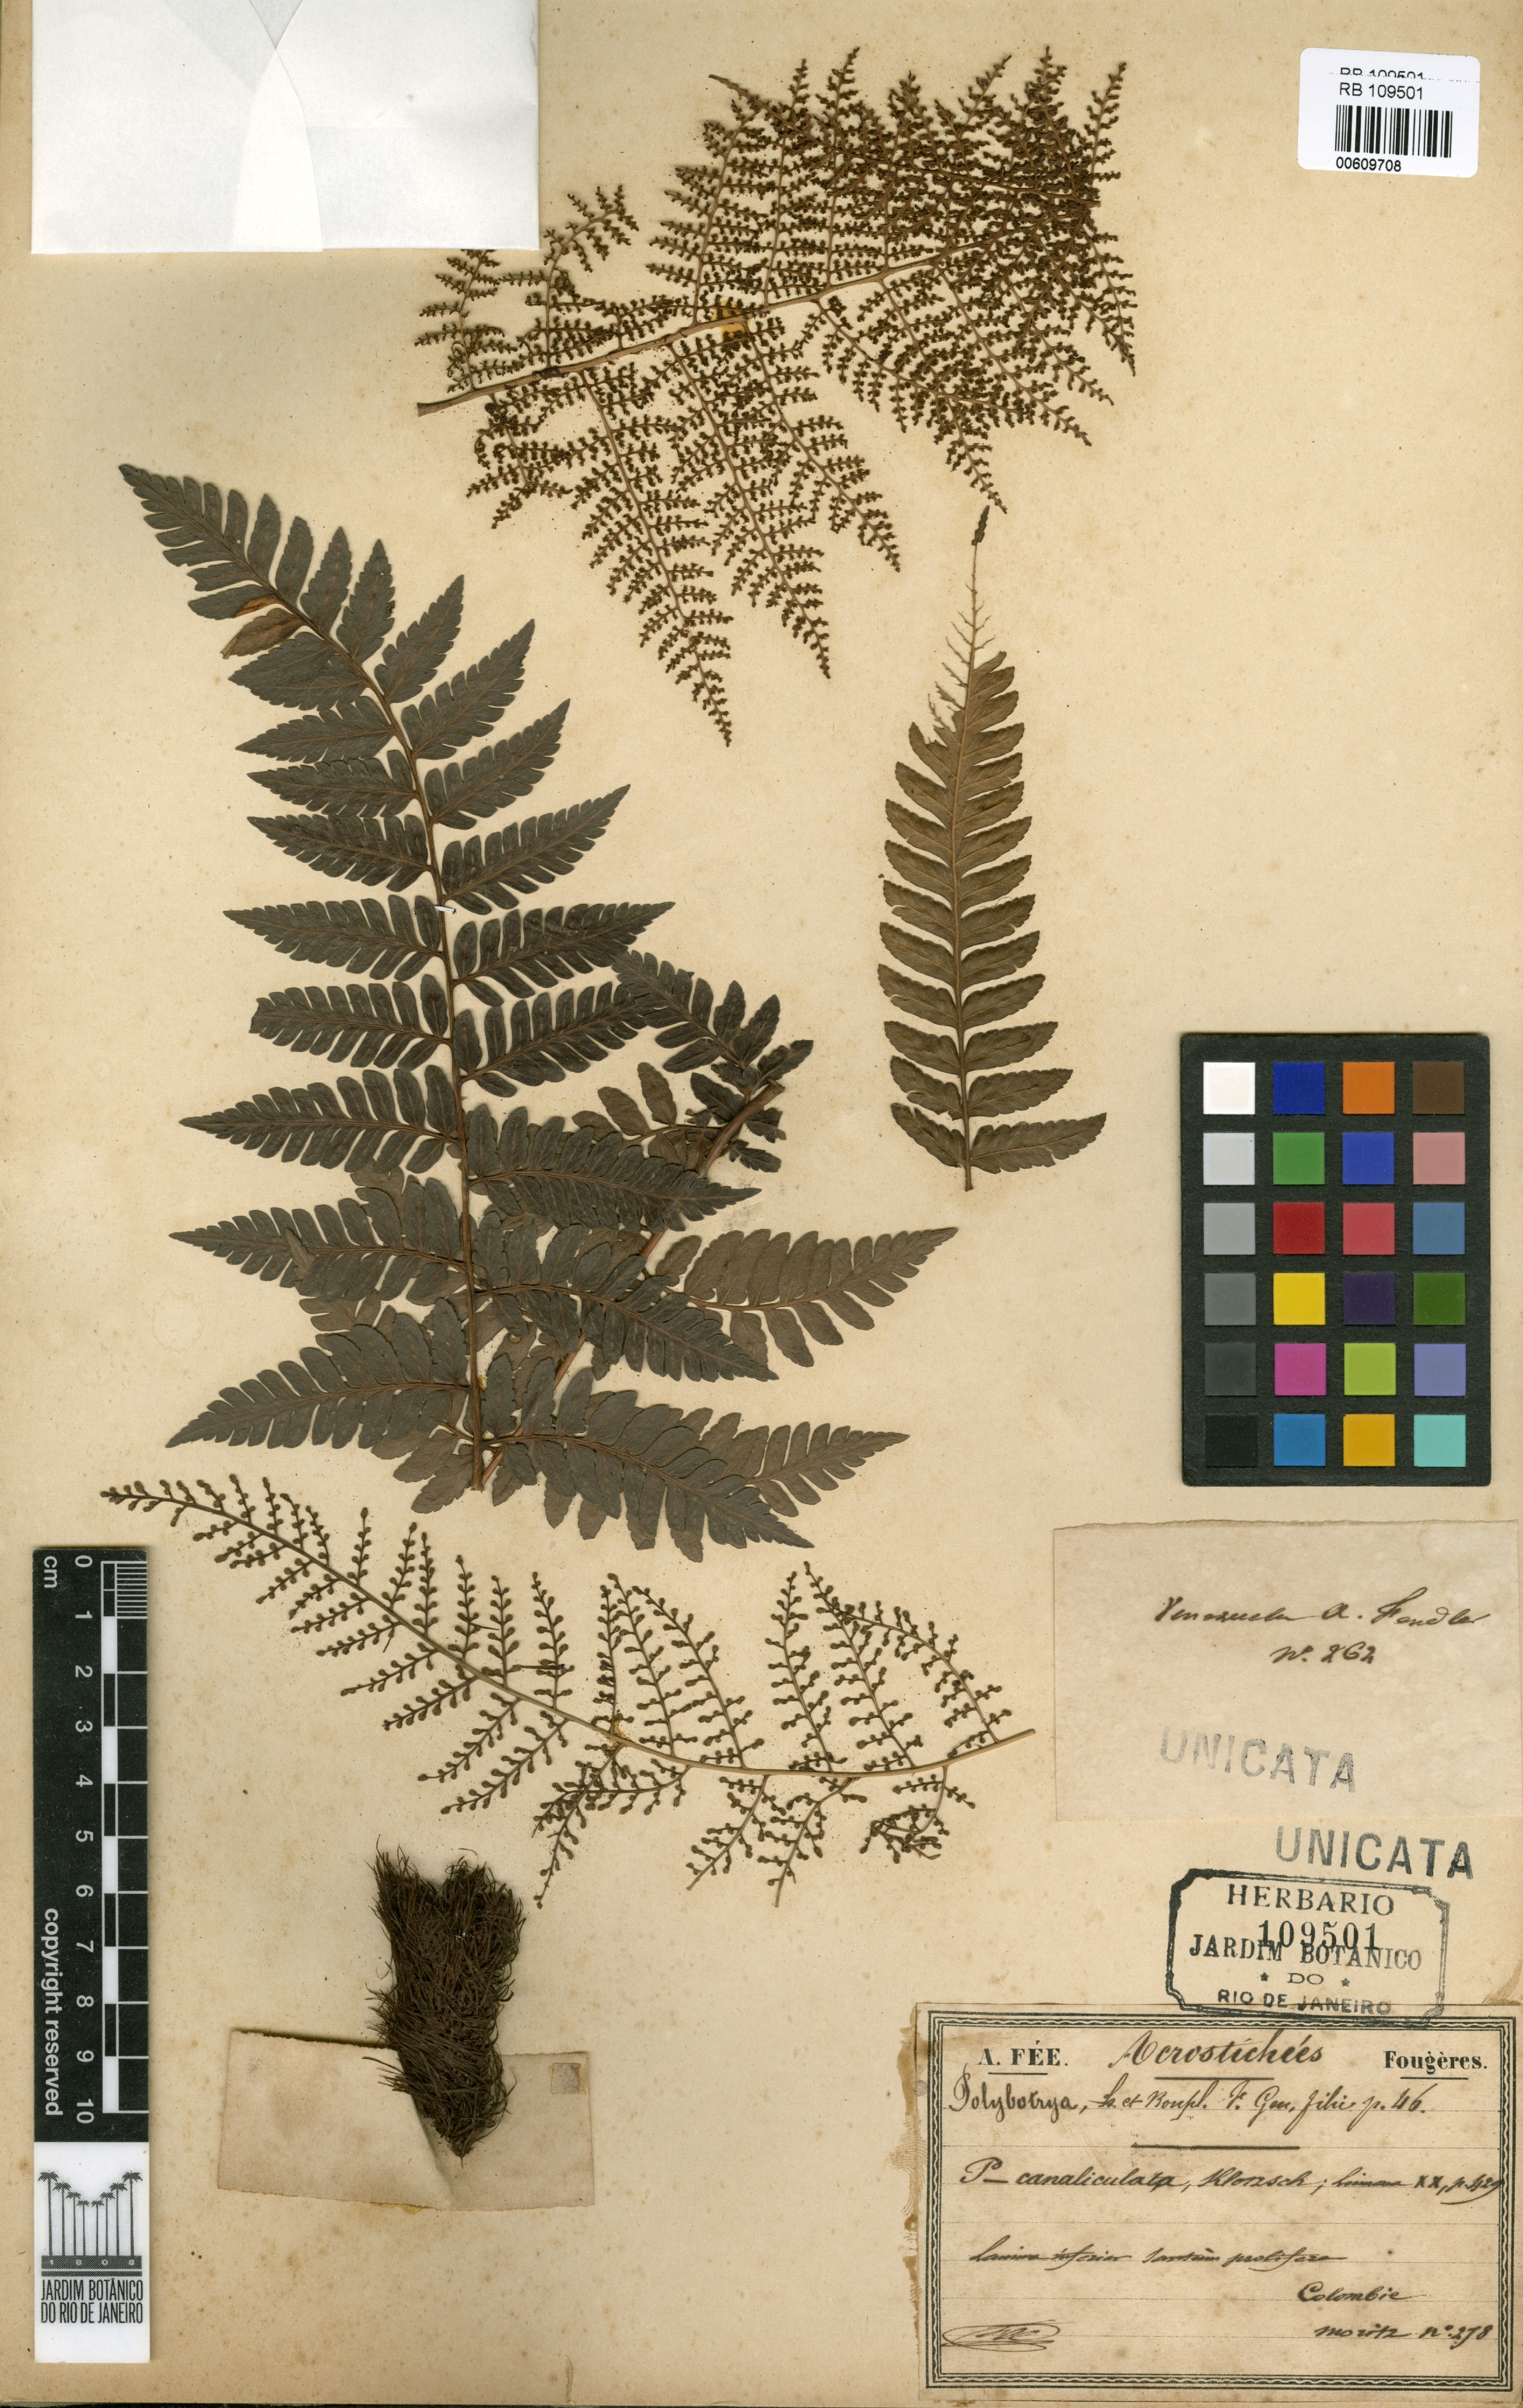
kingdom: Plantae
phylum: Tracheophyta
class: Polypodiopsida
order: Polypodiales
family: Dryopteridaceae
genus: Polybotrya
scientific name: Polybotrya canaliculata
